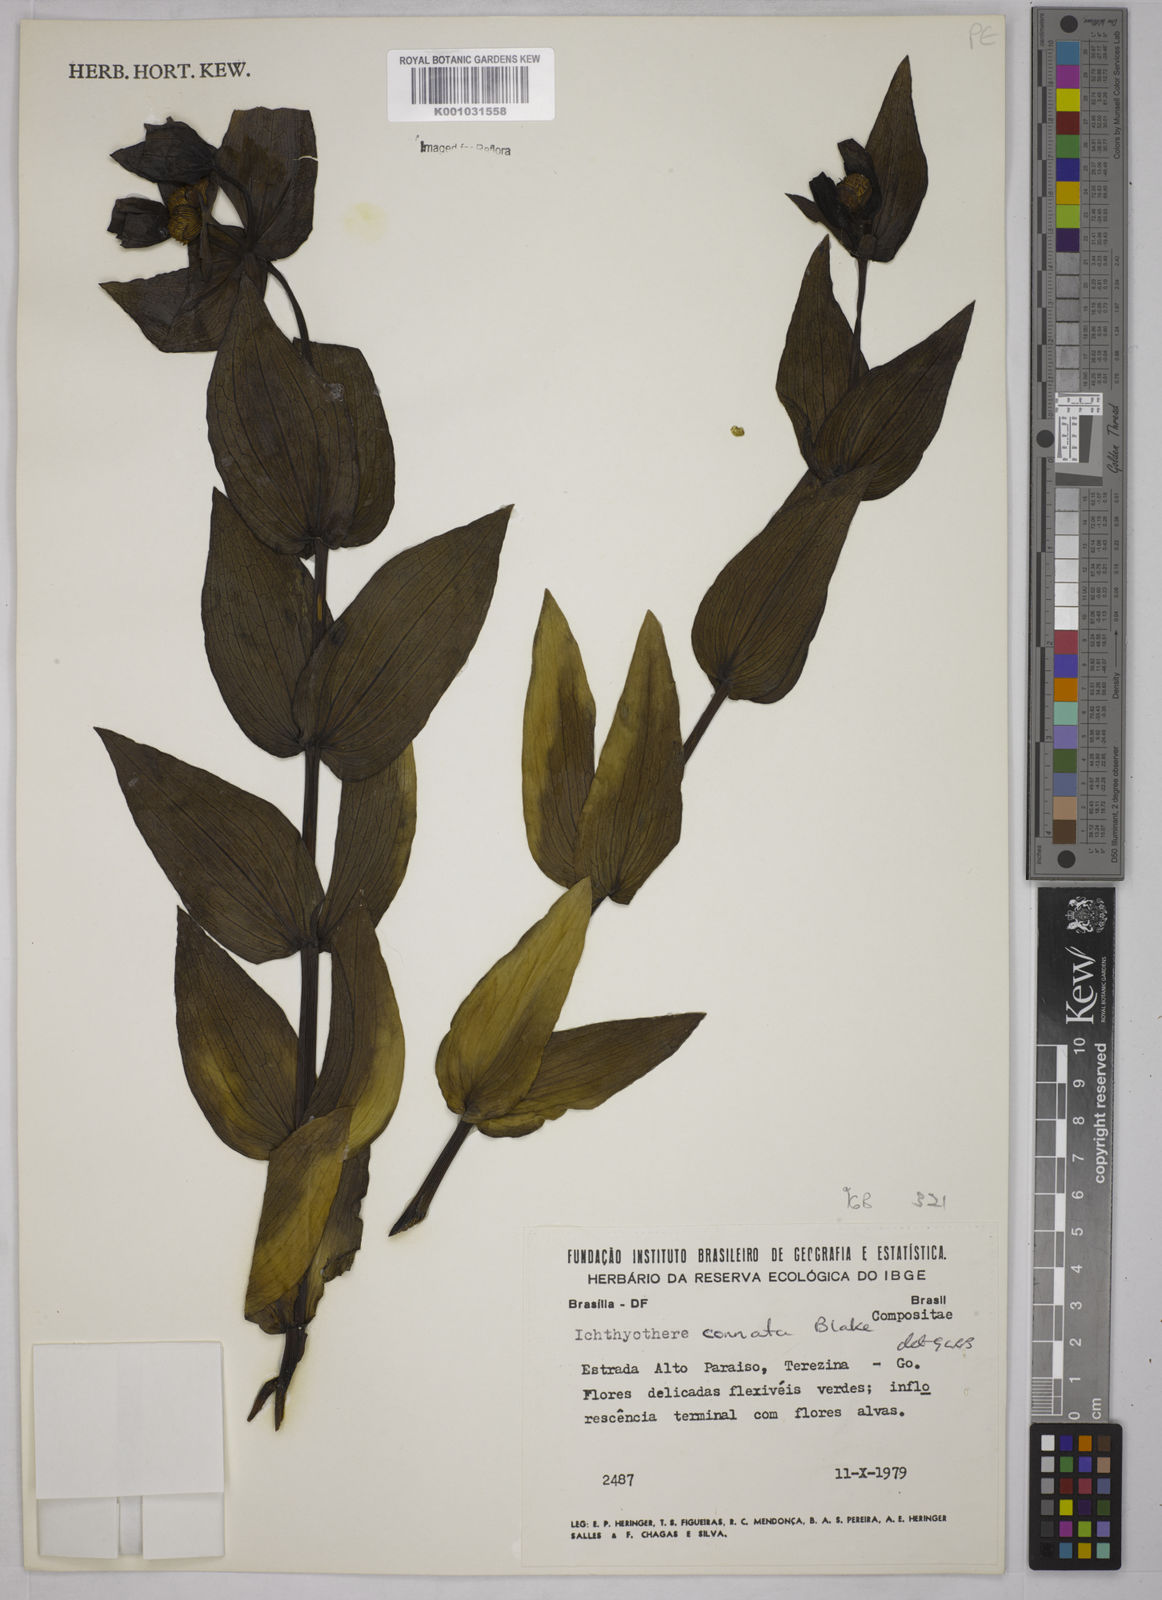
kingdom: Plantae
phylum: Tracheophyta
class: Magnoliopsida
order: Asterales
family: Asteraceae
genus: Ichthyothere
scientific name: Ichthyothere connata
